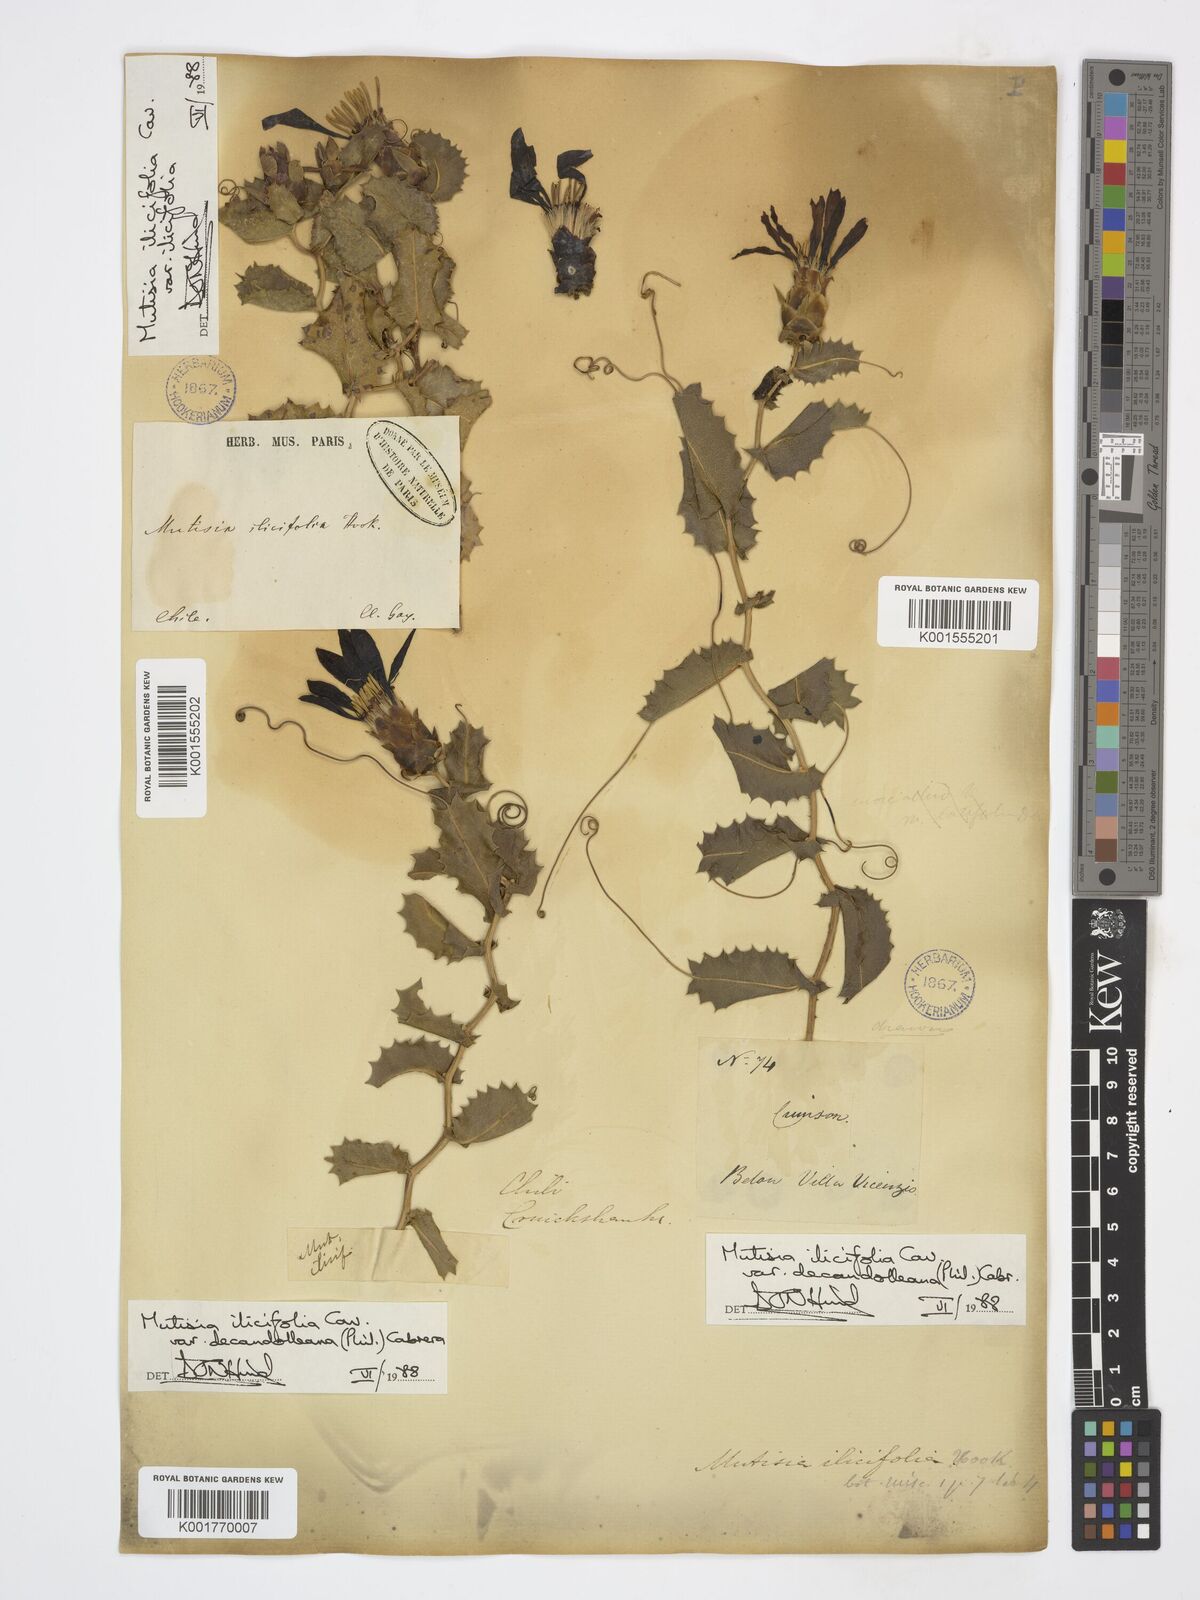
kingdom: Plantae
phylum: Tracheophyta
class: Magnoliopsida
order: Asterales
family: Asteraceae
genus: Mutisia
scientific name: Mutisia ilicifolia
